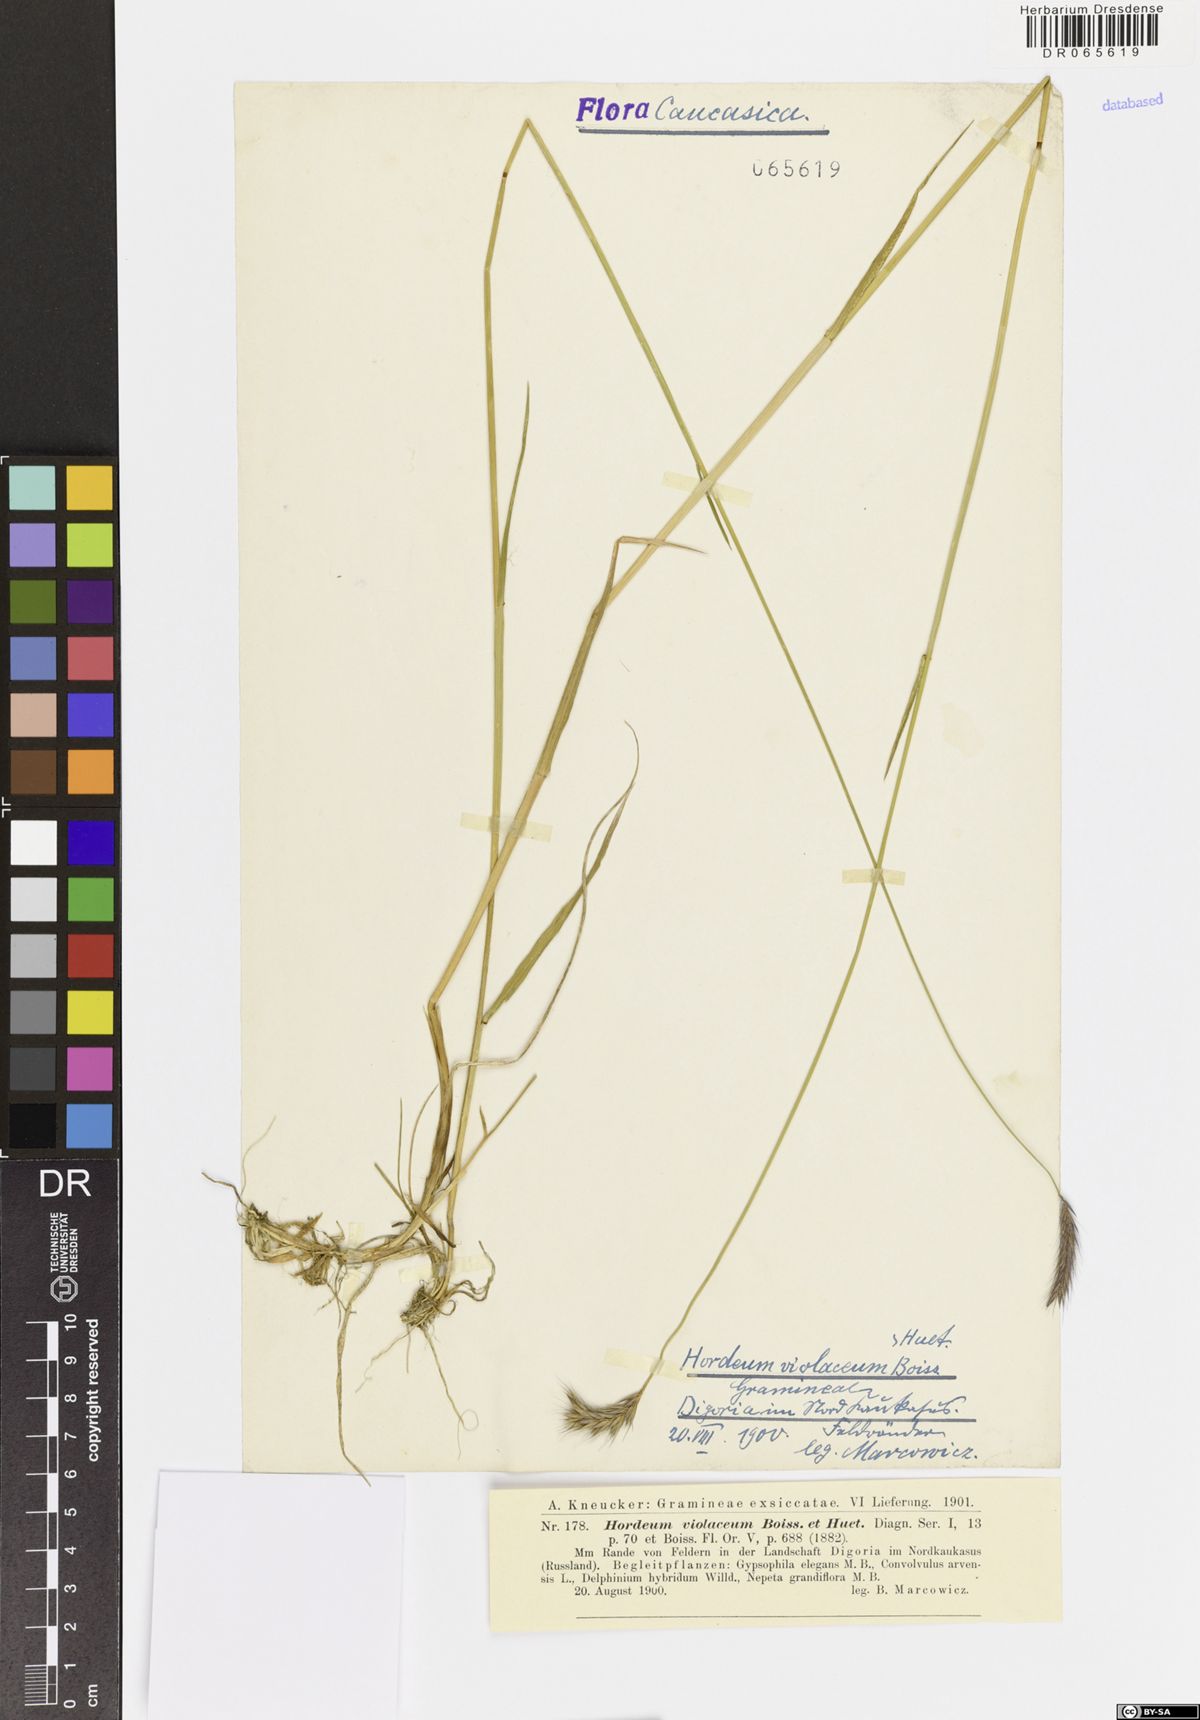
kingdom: Plantae
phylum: Tracheophyta
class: Liliopsida
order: Poales
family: Poaceae
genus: Hordeum
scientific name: Hordeum brevisubulatum
